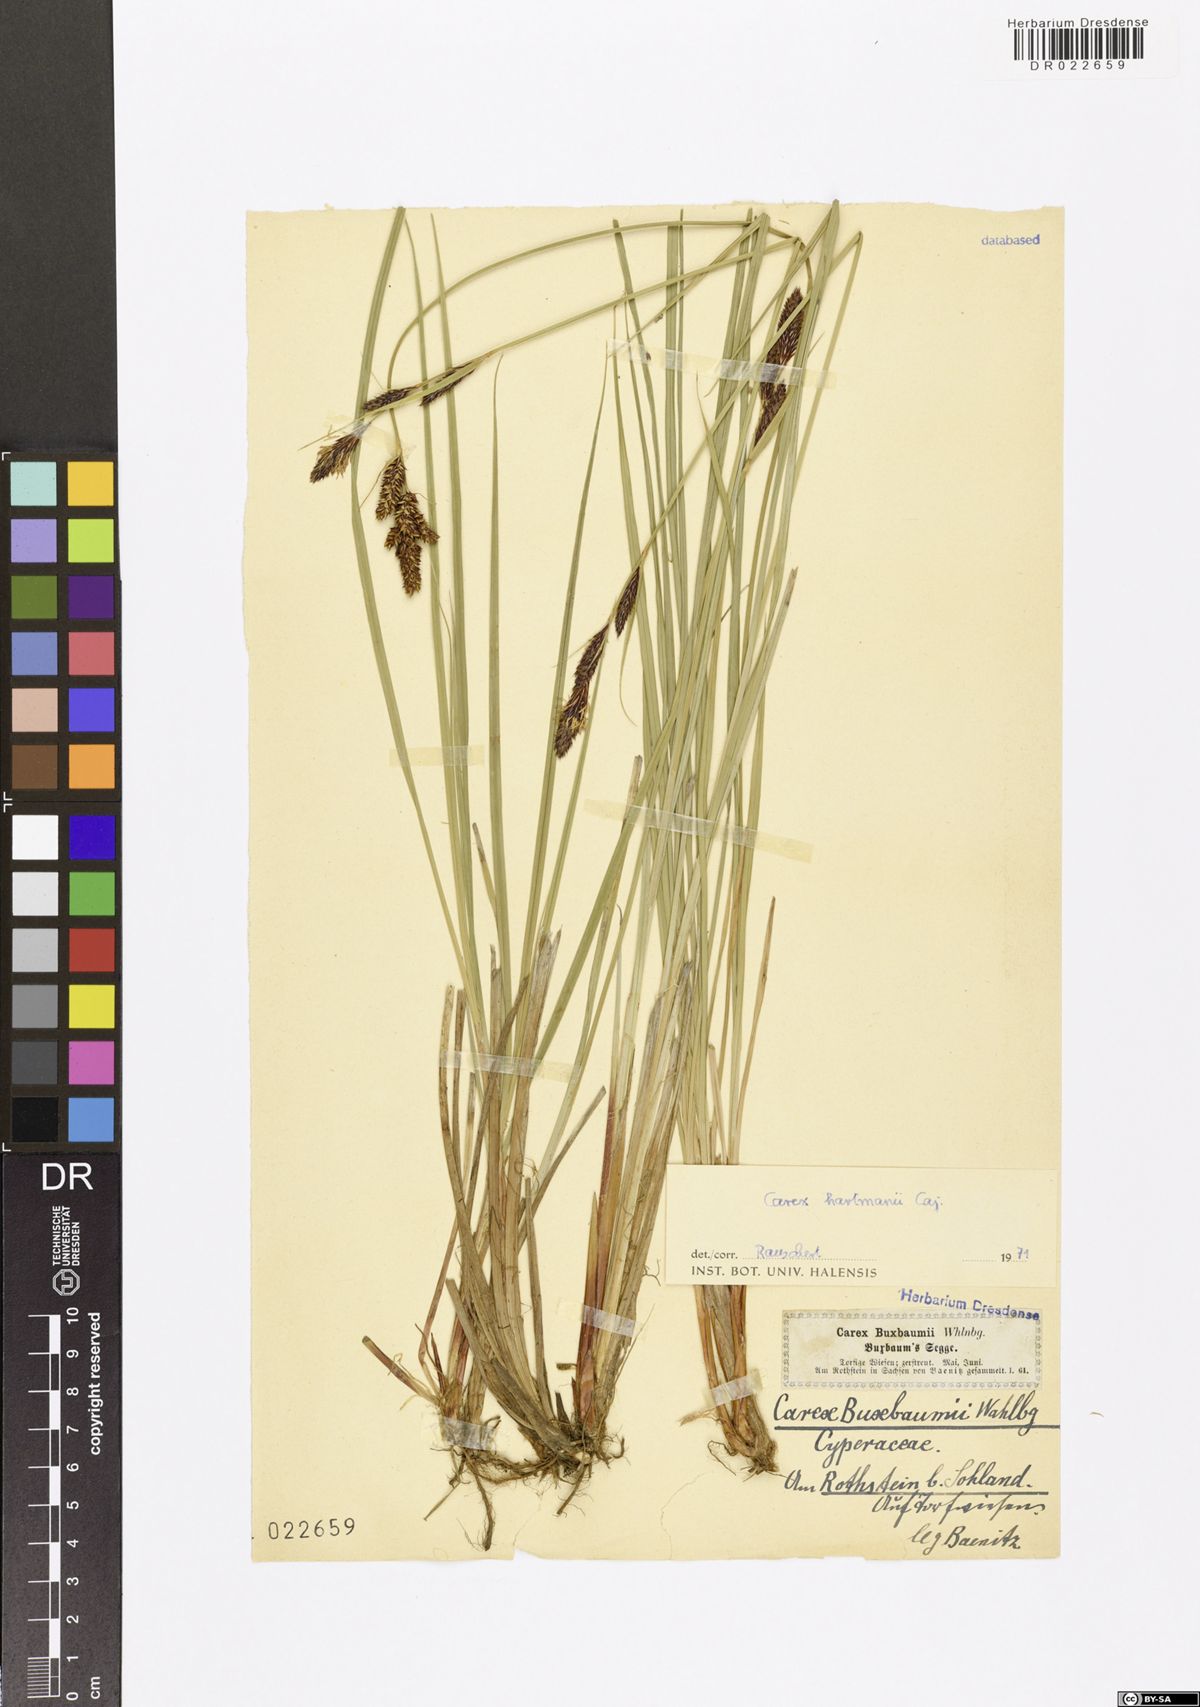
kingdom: Plantae
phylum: Tracheophyta
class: Liliopsida
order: Poales
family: Cyperaceae
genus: Carex
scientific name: Carex hartmaniorum
